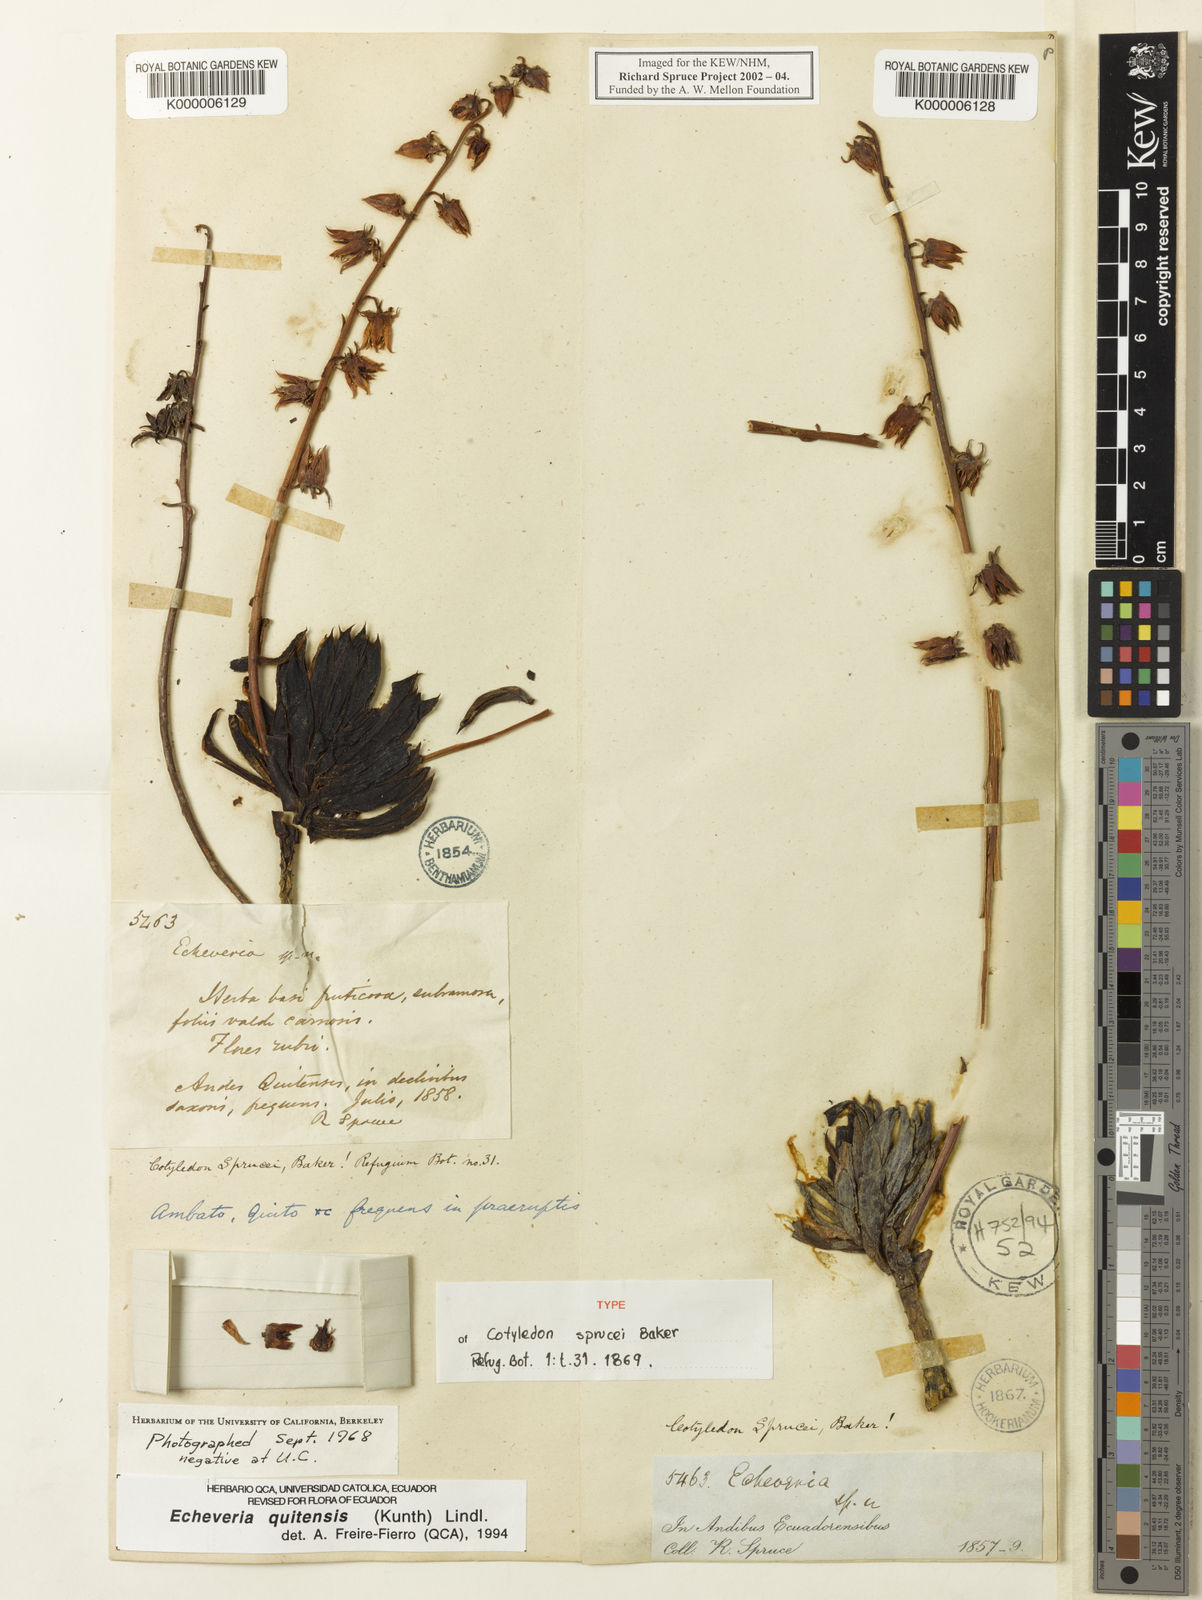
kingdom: Plantae
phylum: Tracheophyta
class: Magnoliopsida
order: Saxifragales
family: Crassulaceae
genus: Echeveria
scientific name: Echeveria bicolor
